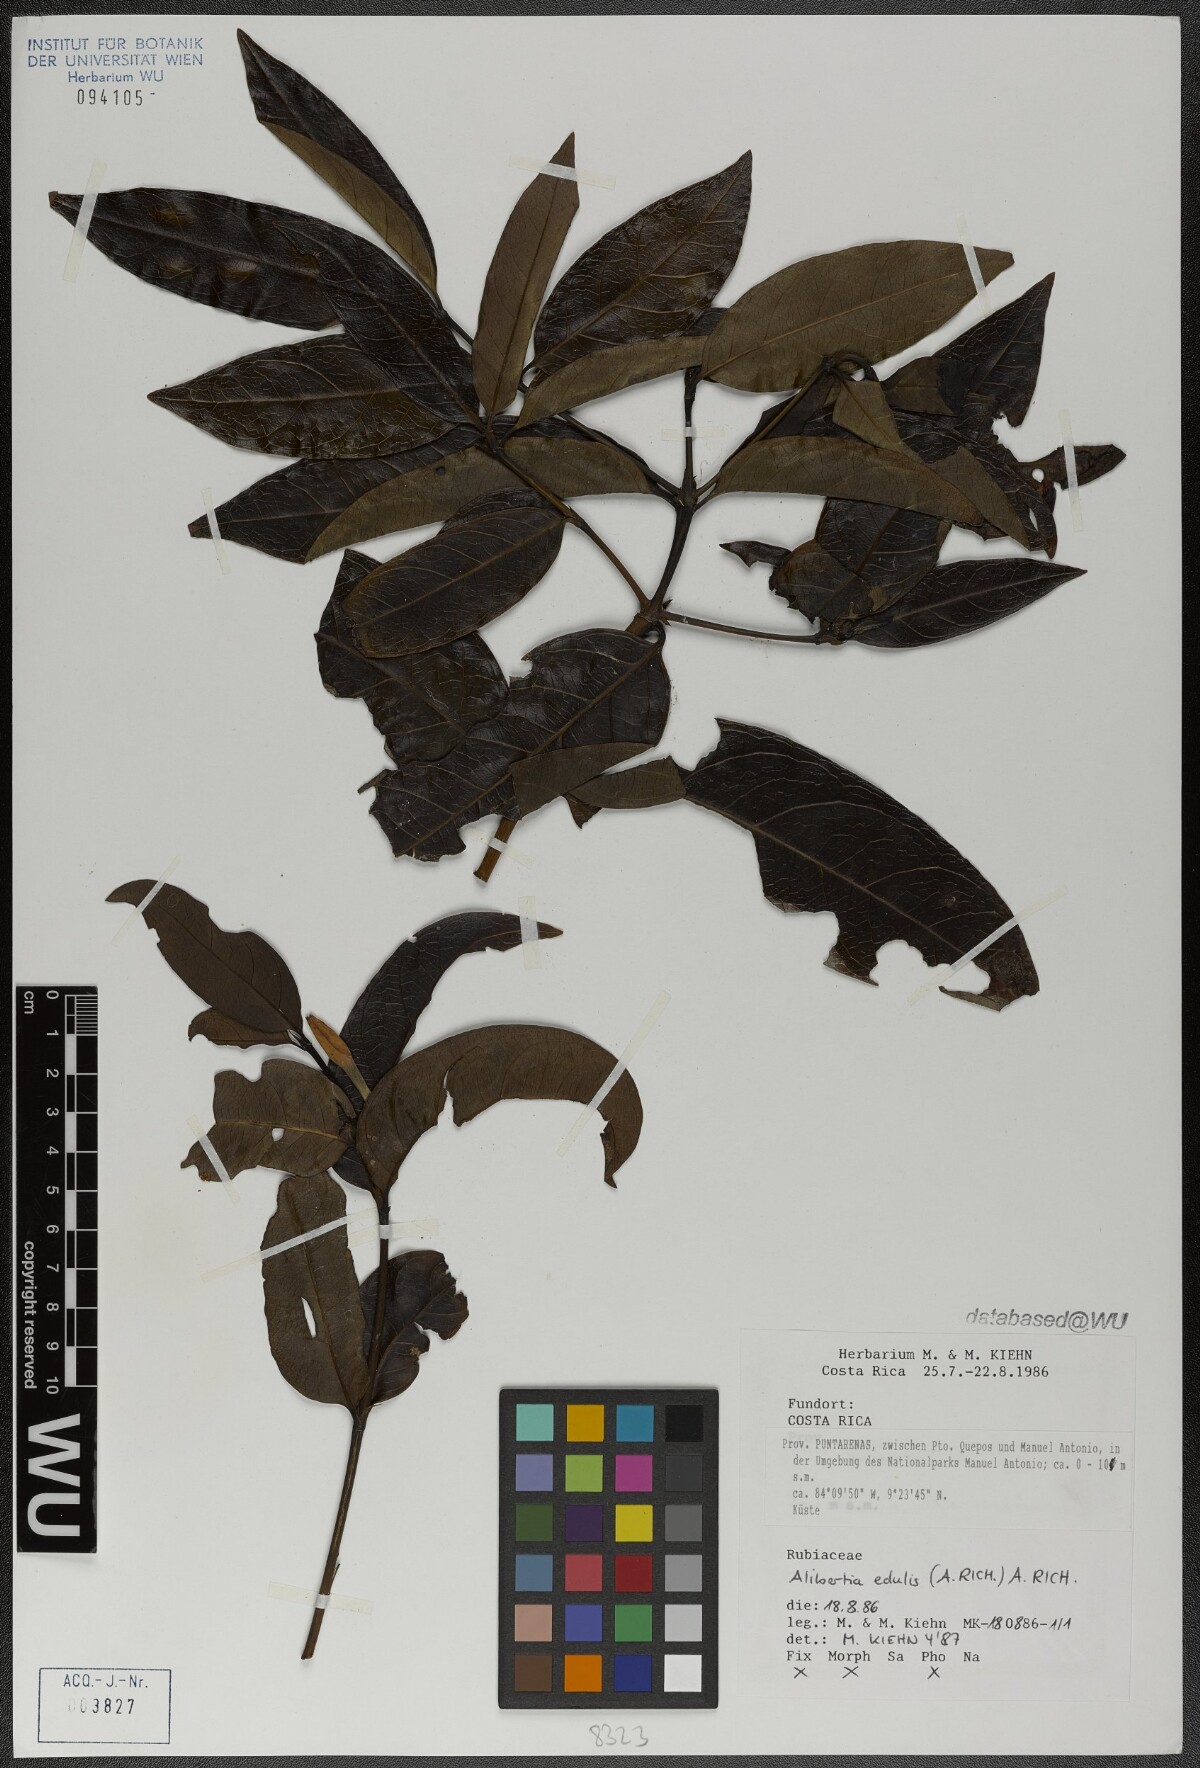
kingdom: Plantae
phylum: Tracheophyta
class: Magnoliopsida
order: Gentianales
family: Rubiaceae
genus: Alibertia
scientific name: Alibertia edulis
